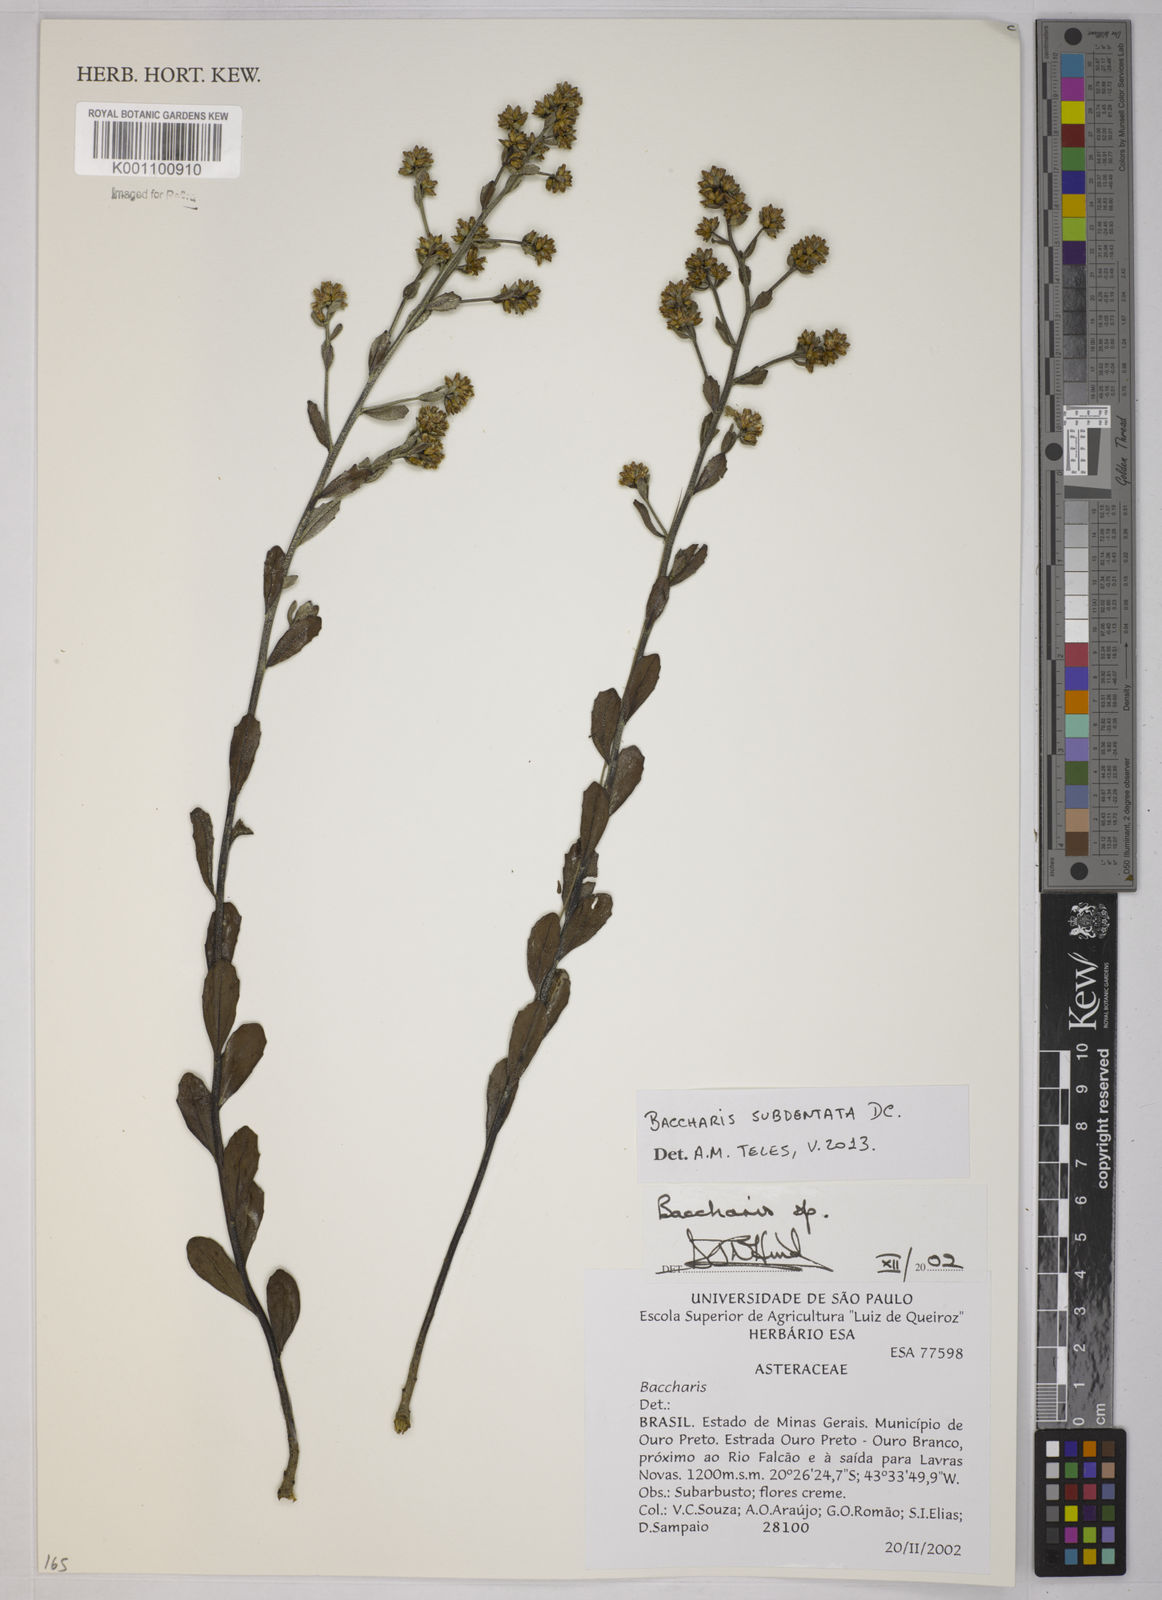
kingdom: Plantae
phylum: Tracheophyta
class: Magnoliopsida
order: Asterales
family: Asteraceae
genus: Baccharis
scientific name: Baccharis subdentata
